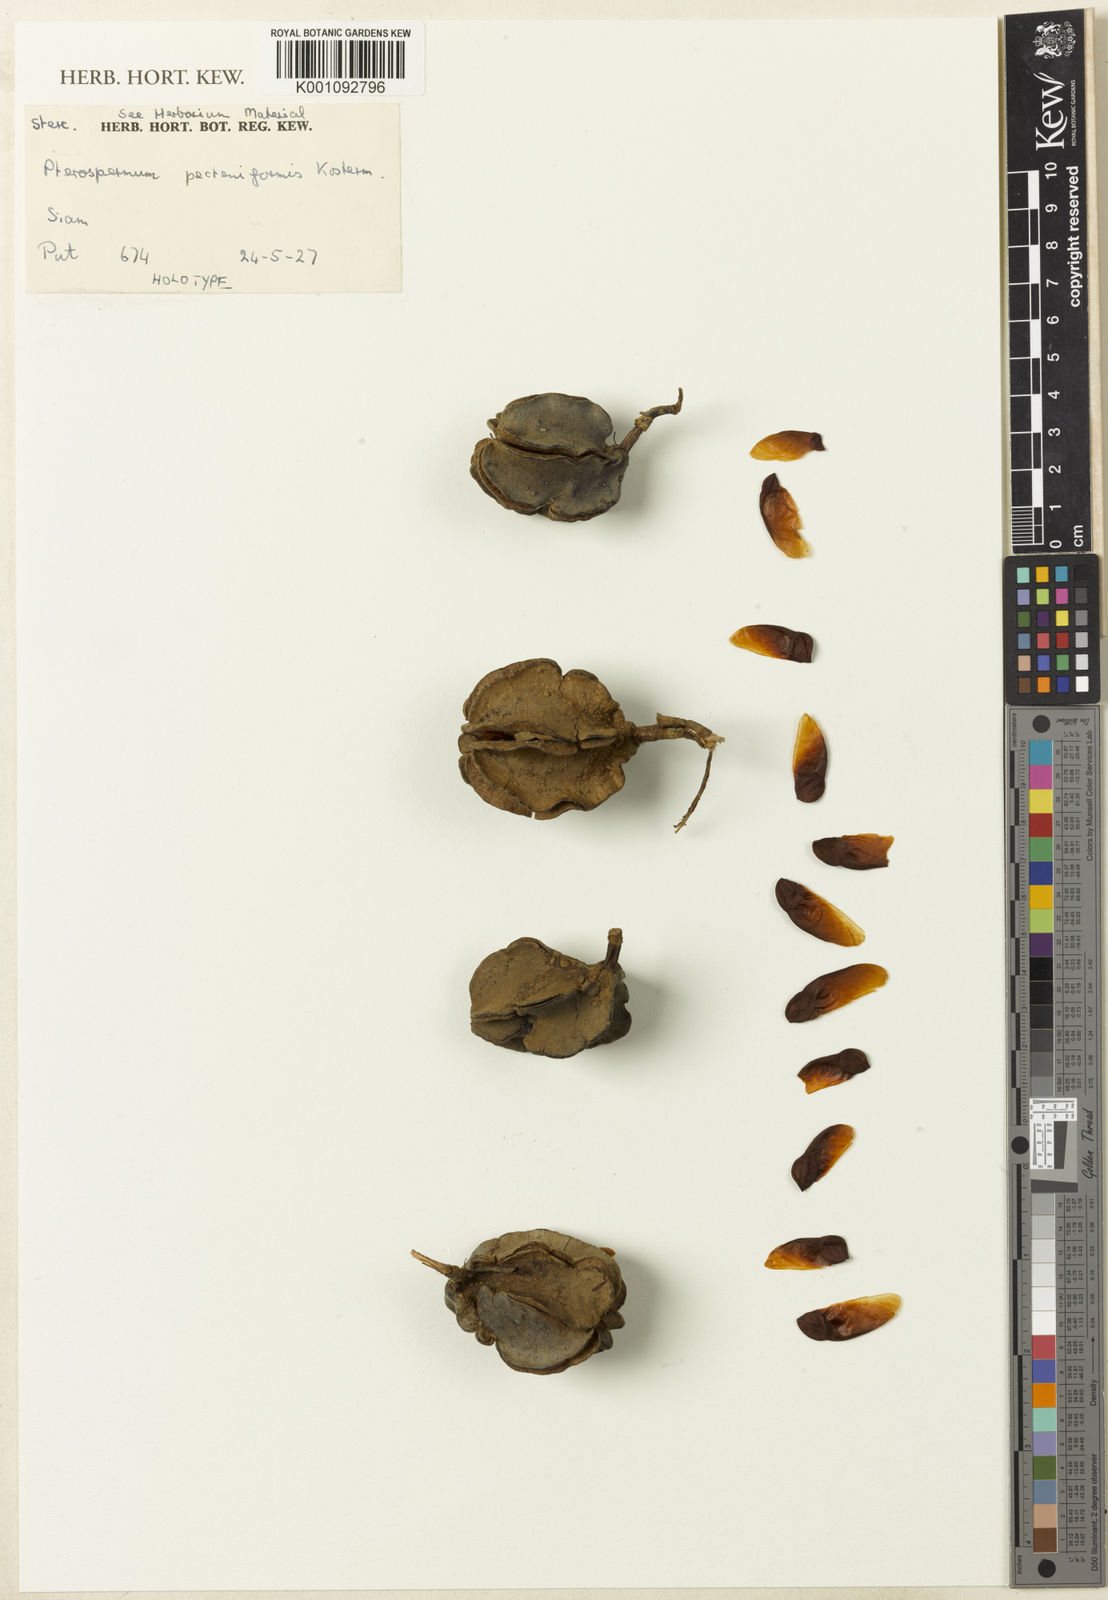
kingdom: Plantae
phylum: Tracheophyta
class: Magnoliopsida
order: Malvales
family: Malvaceae
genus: Pterospermum
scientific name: Pterospermum pecteniforme
